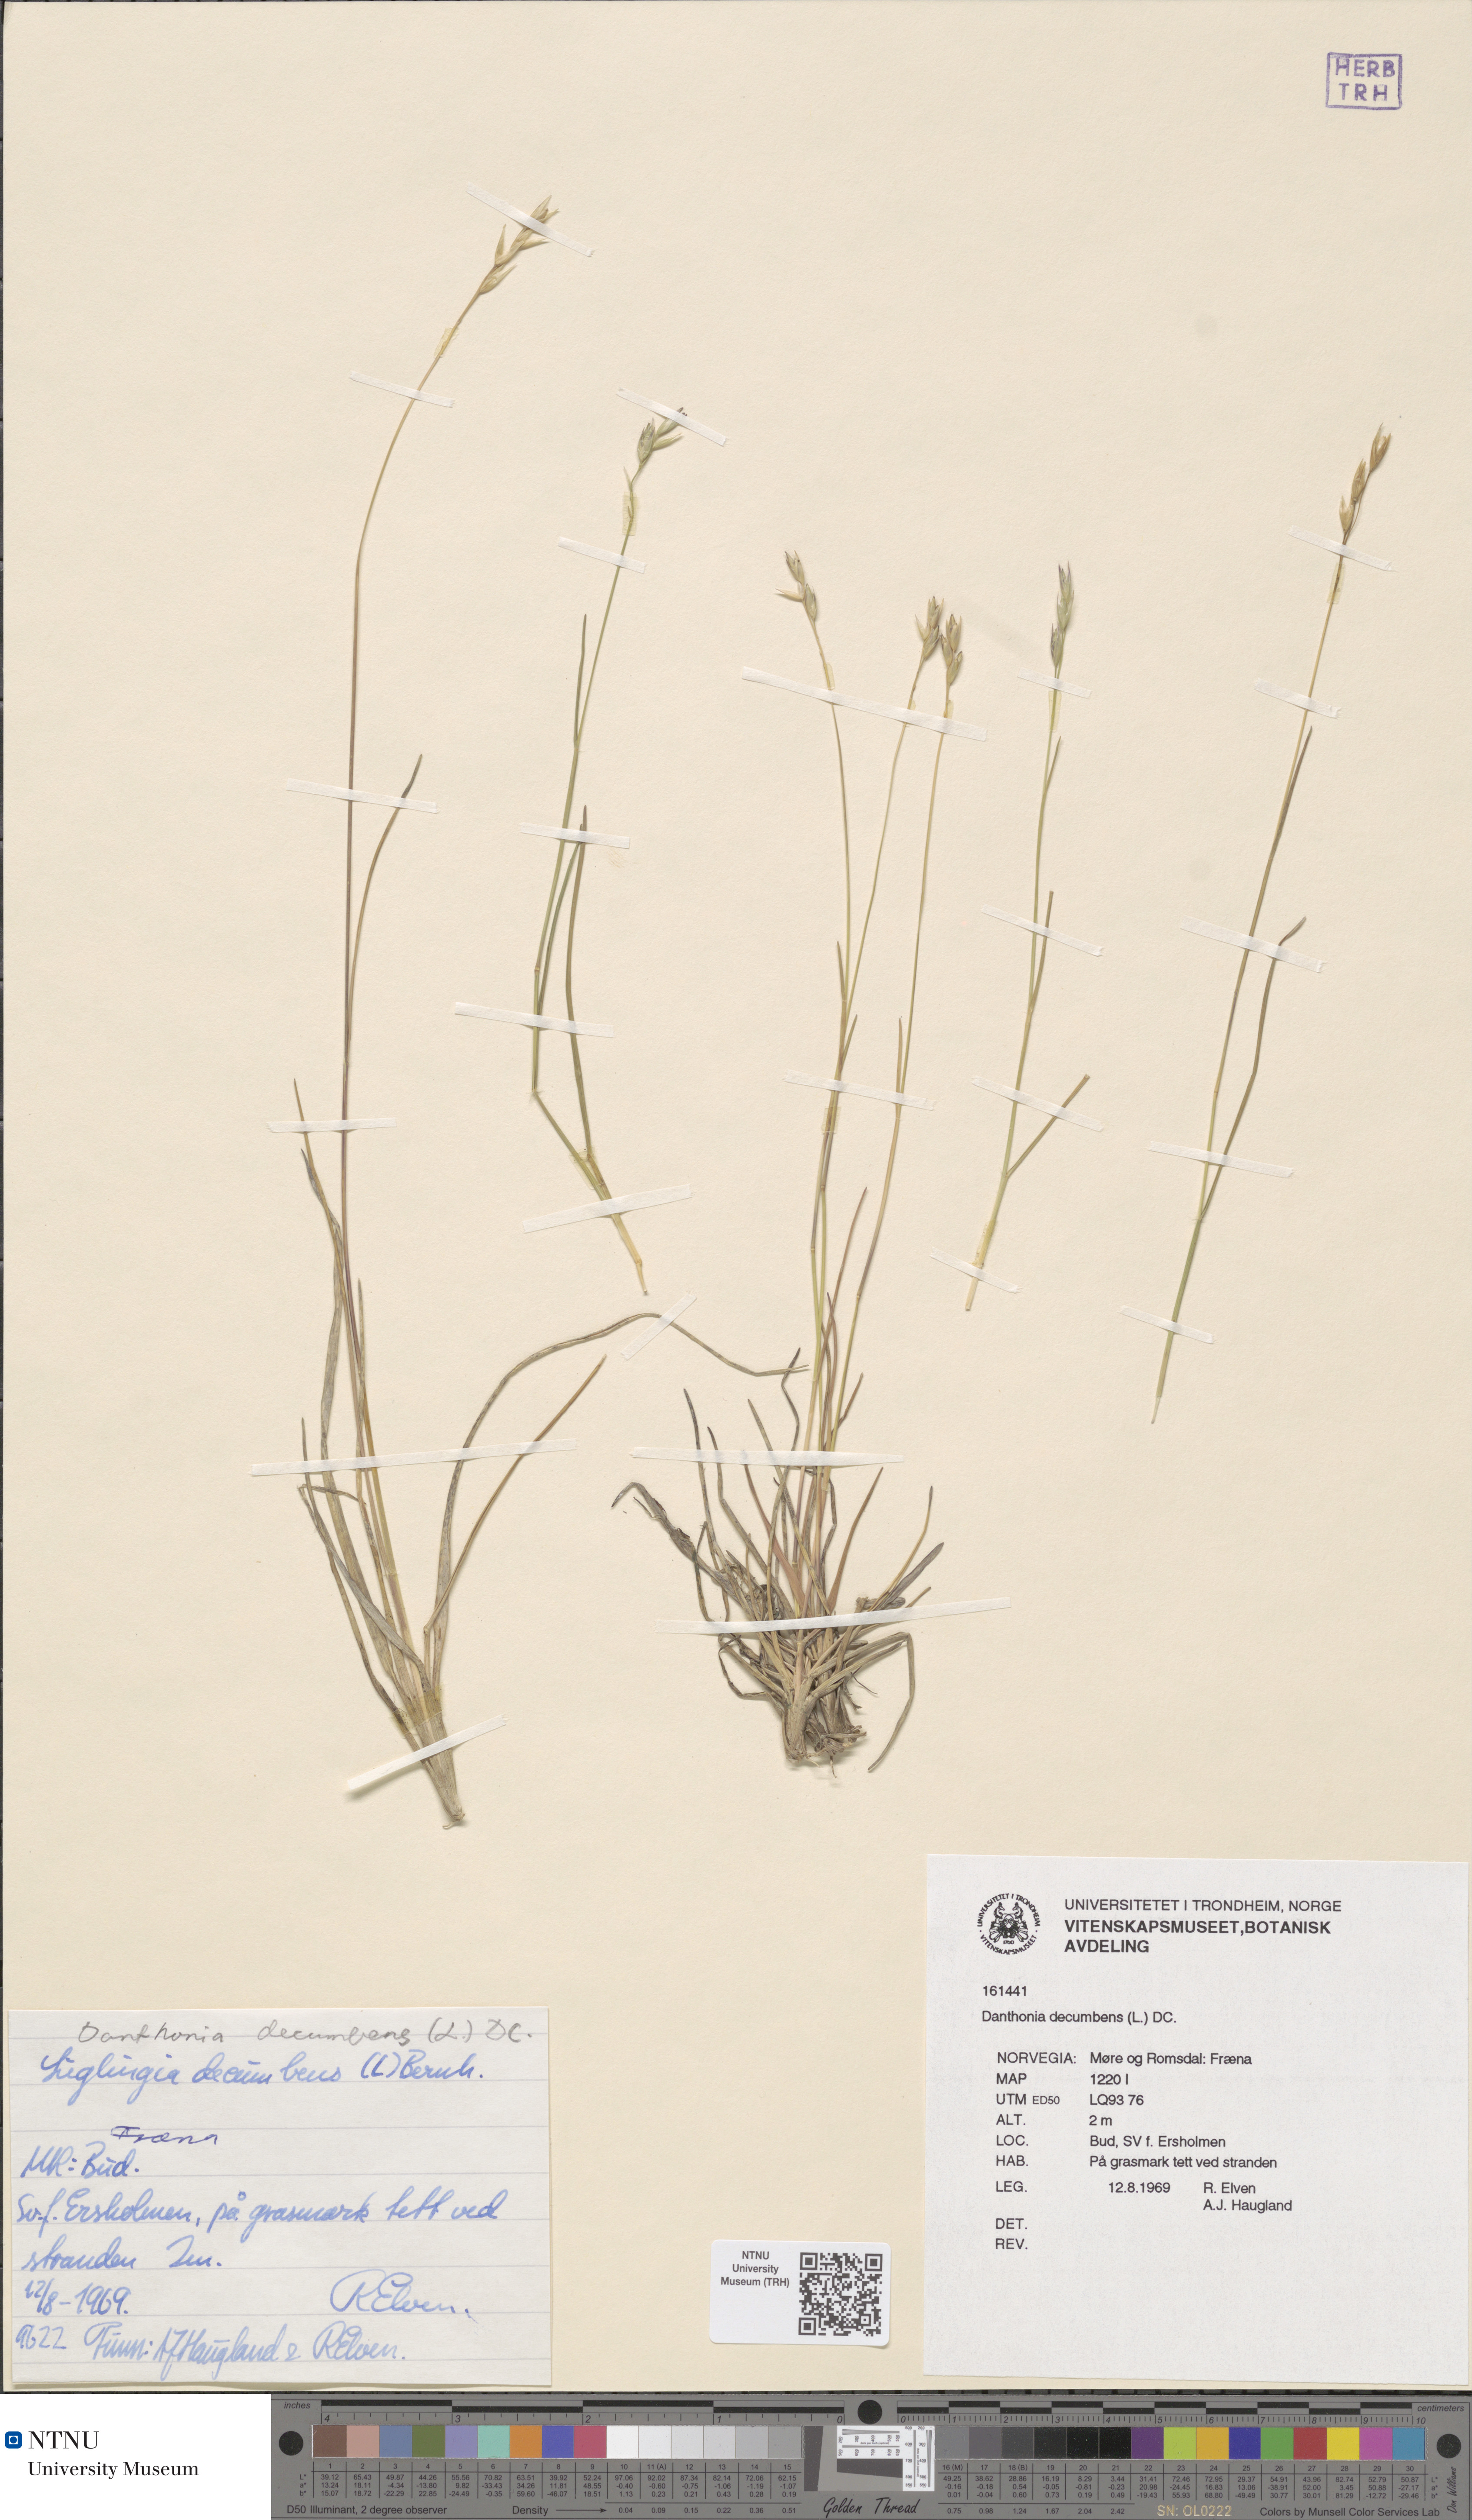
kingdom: Plantae
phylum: Tracheophyta
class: Liliopsida
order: Poales
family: Poaceae
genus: Danthonia
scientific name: Danthonia decumbens
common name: Common heathgrass
